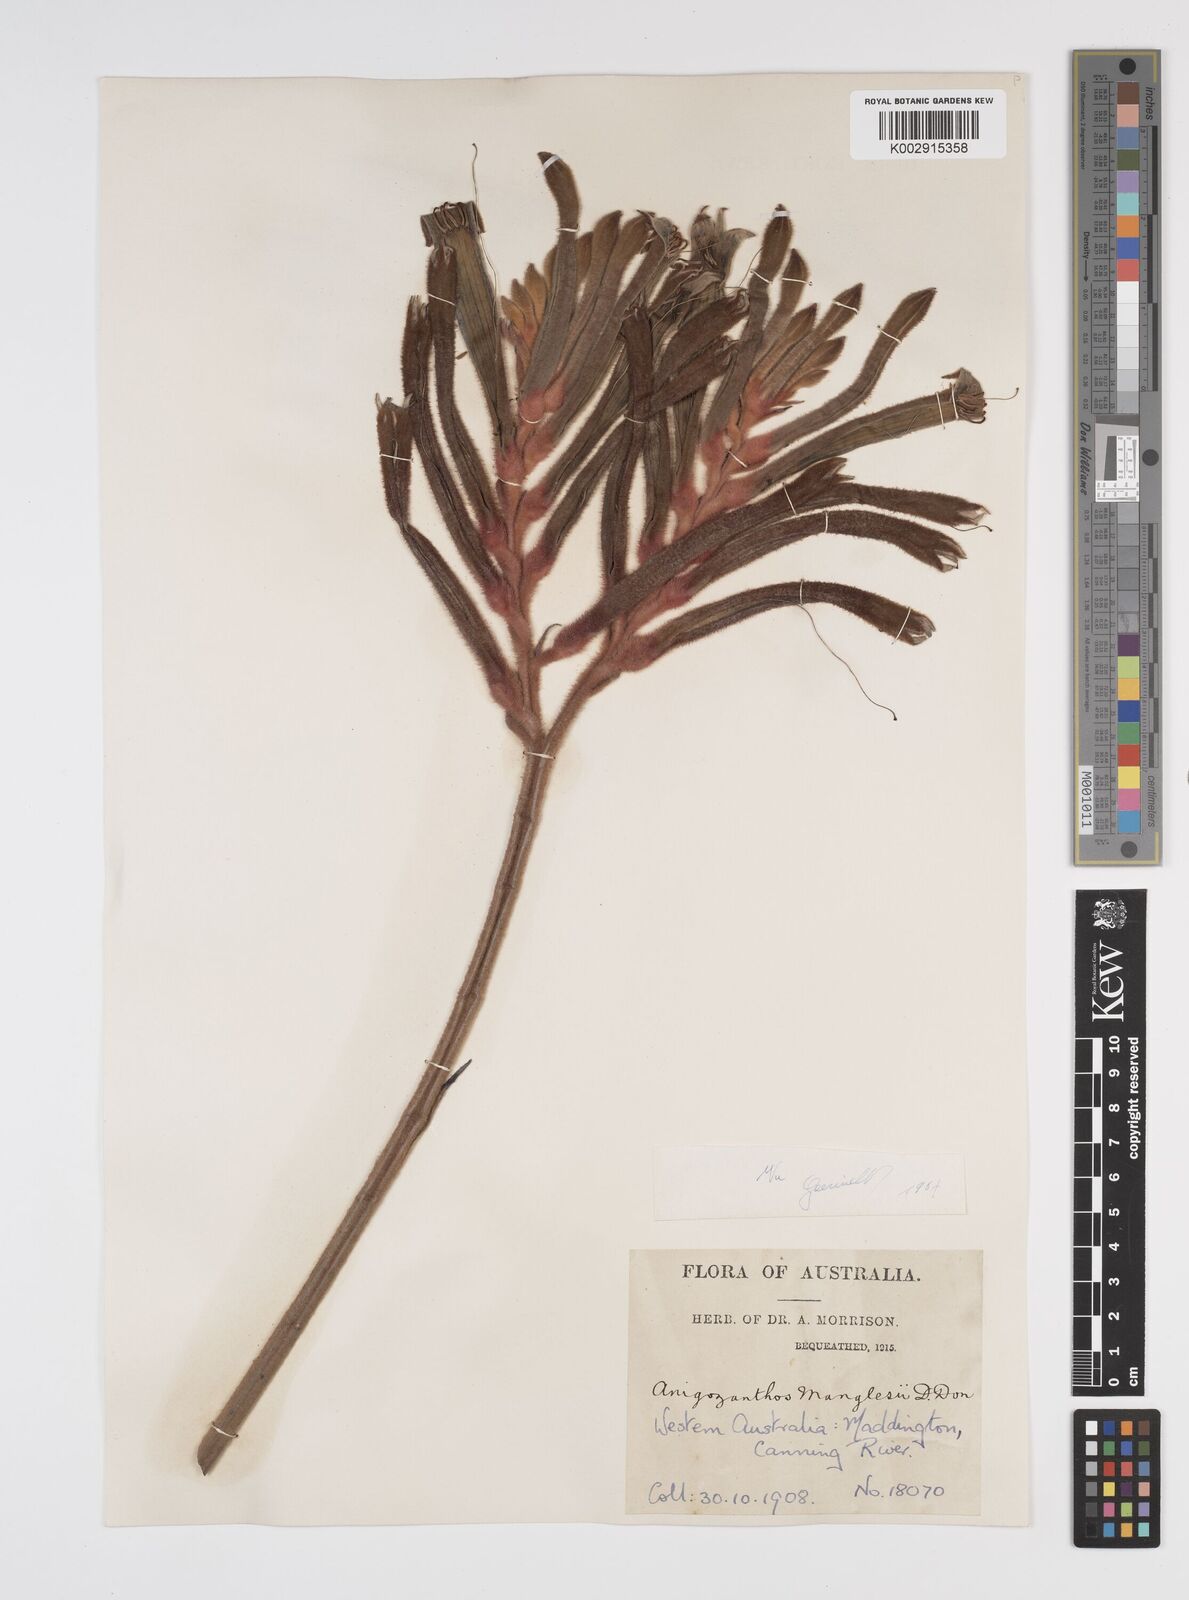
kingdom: Plantae
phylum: Tracheophyta
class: Liliopsida
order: Commelinales
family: Haemodoraceae
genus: Anigozanthos
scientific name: Anigozanthos manglesii
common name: Mangles's kangaroo-paw
